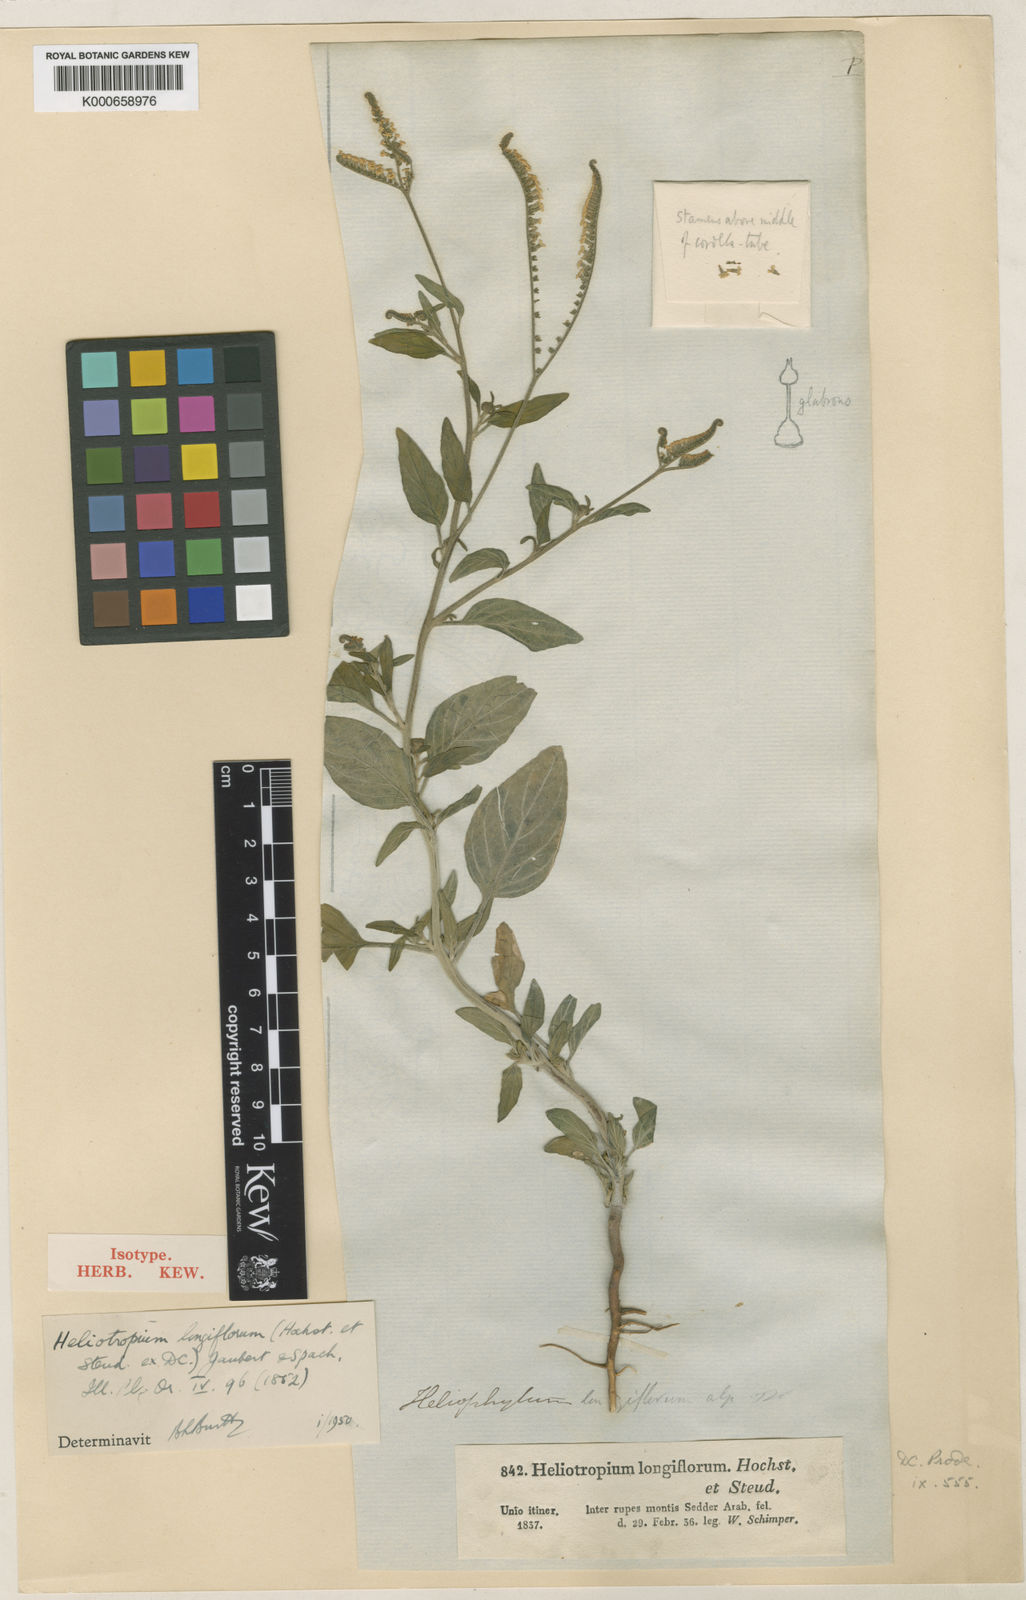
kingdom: Plantae
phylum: Tracheophyta
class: Magnoliopsida
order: Boraginales
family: Heliotropiaceae
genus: Heliotropium
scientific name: Heliotropium longiflorum
